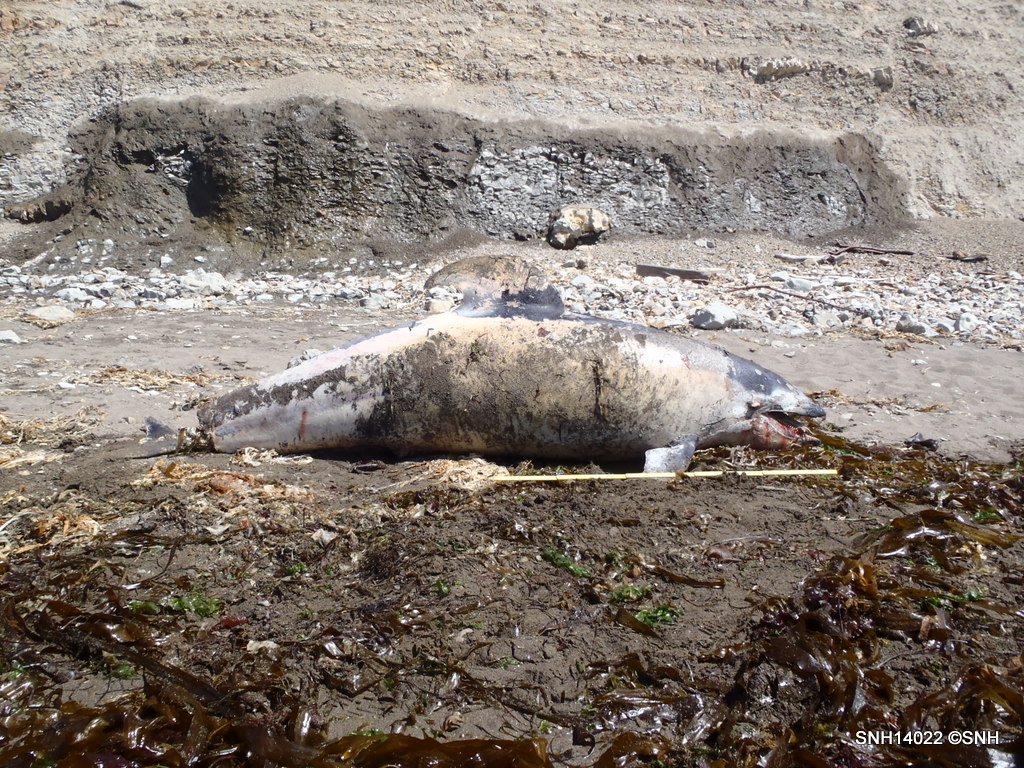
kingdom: Animalia
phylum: Chordata
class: Mammalia
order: Cetacea
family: Delphinidae
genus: Lagenorhynchus
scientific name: Lagenorhynchus obliquidens
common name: Pacific white-sided dolphin
